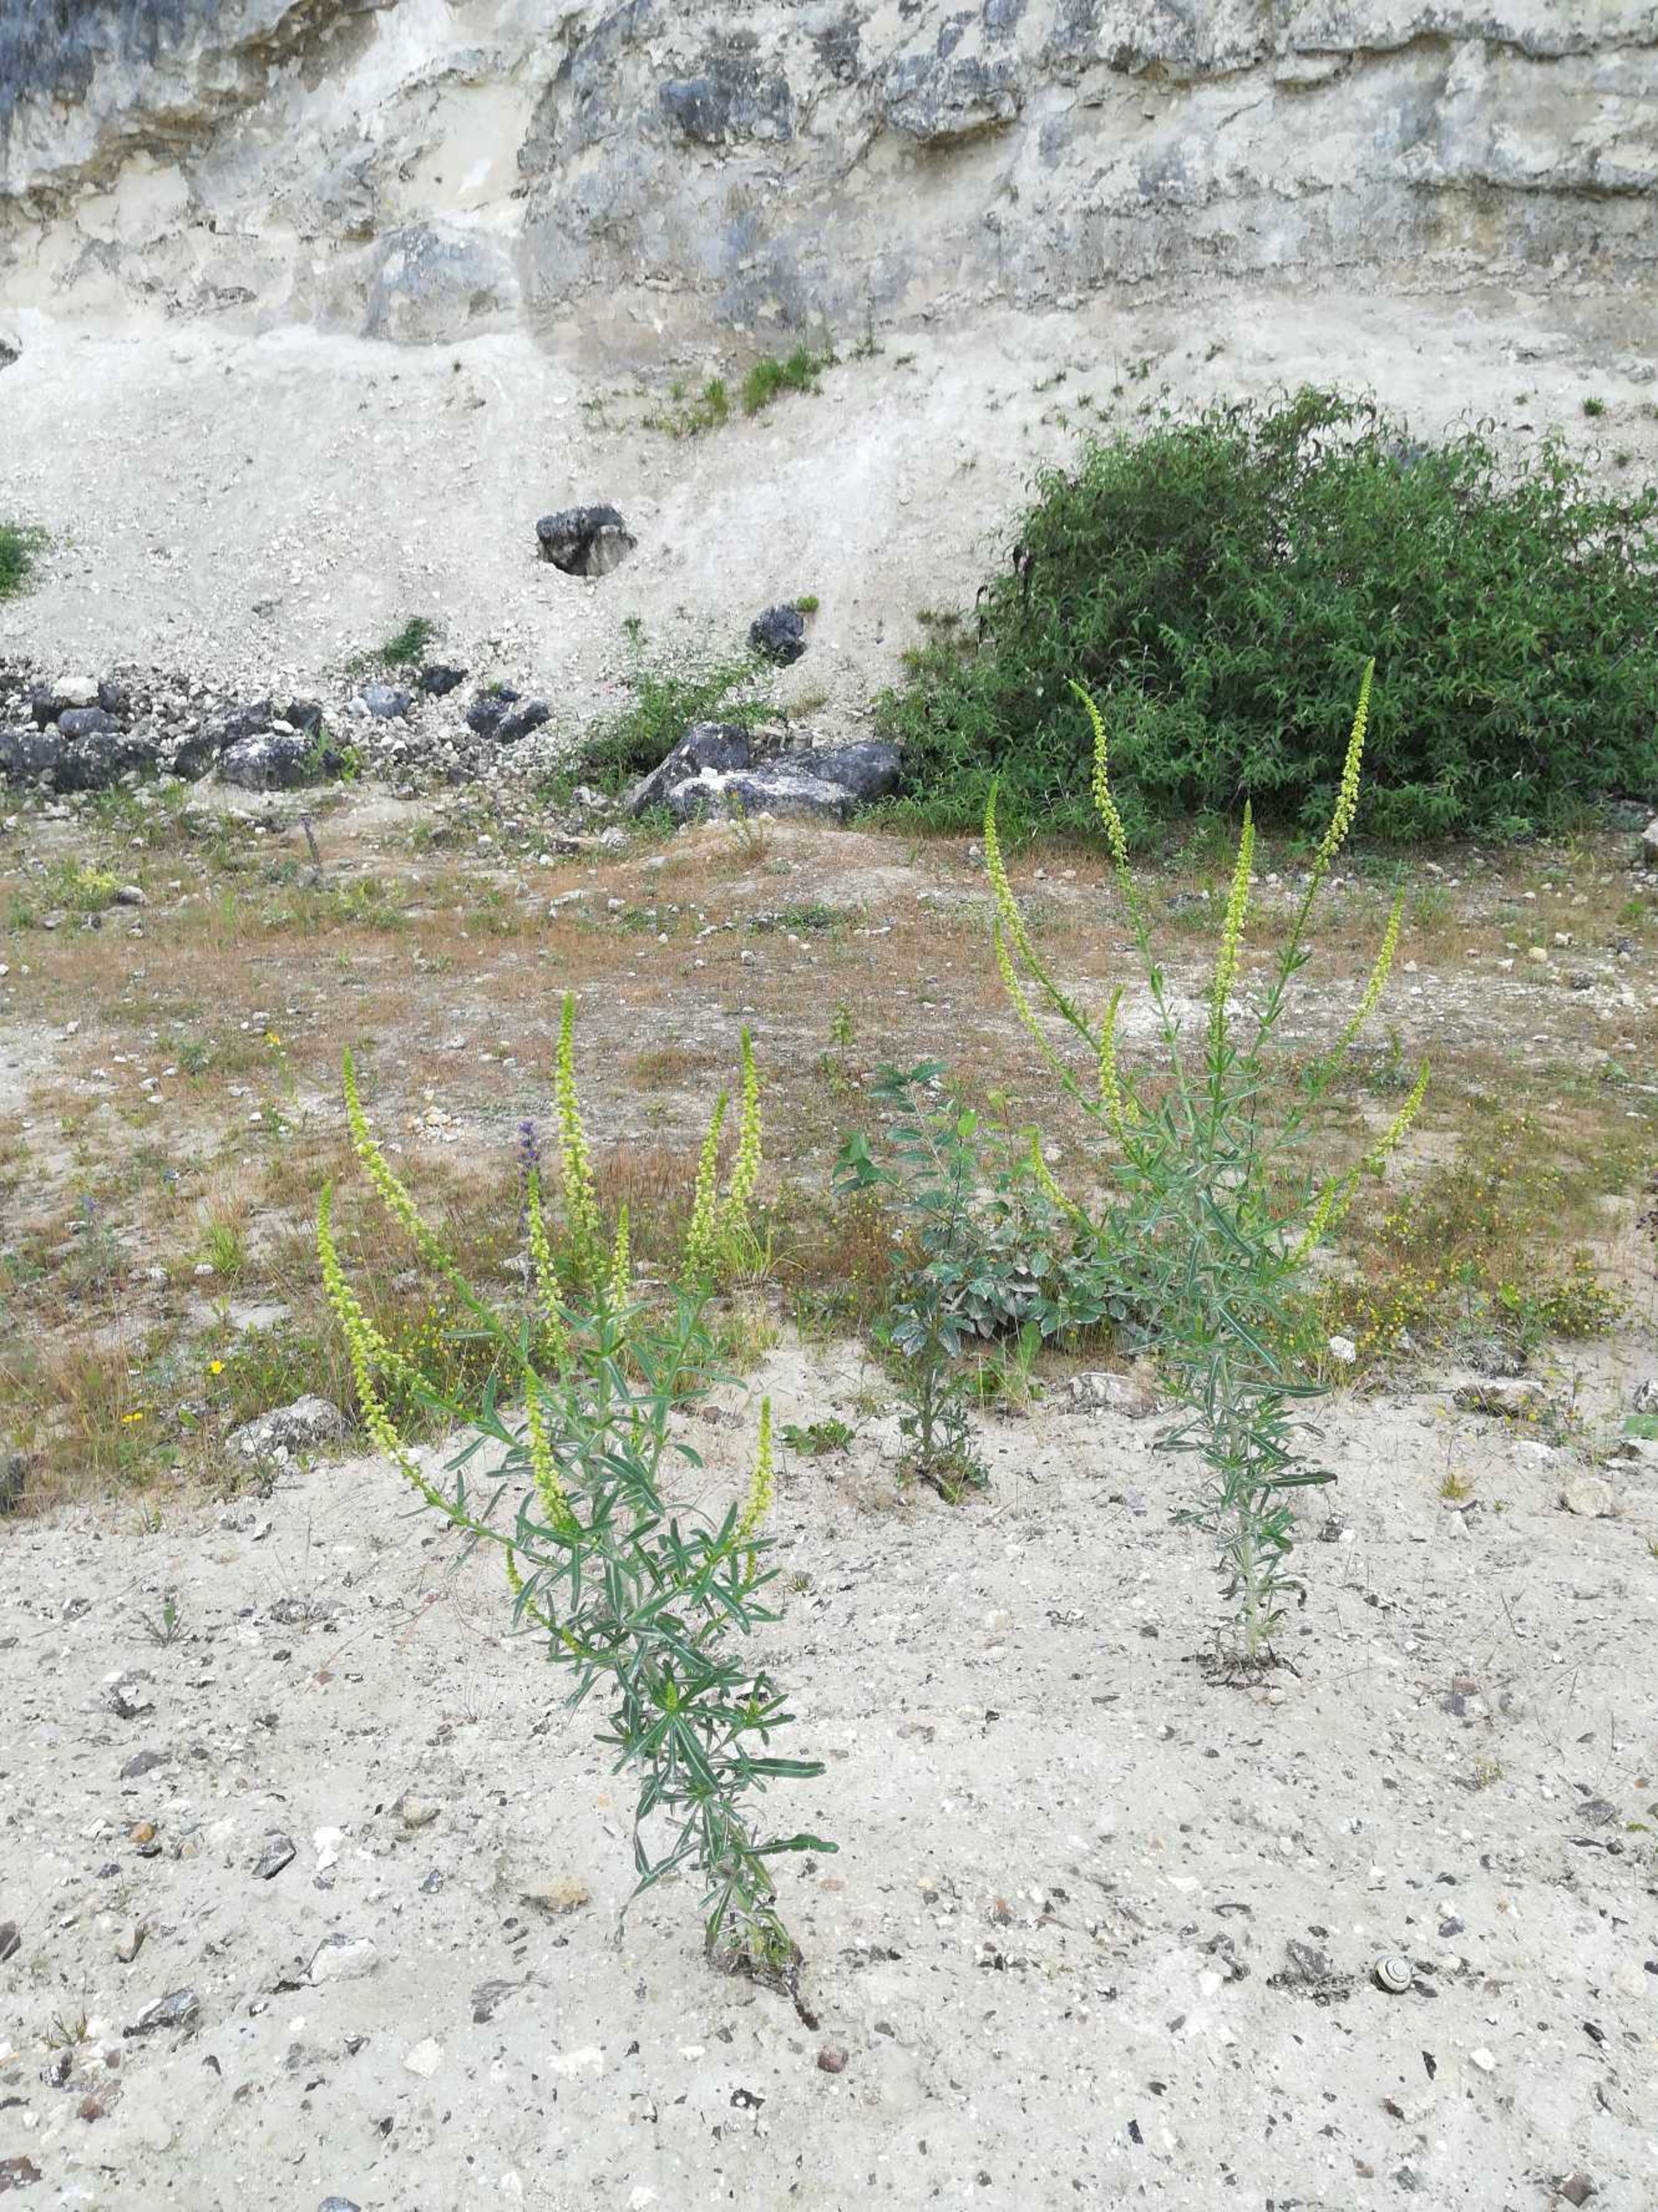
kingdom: Plantae
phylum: Tracheophyta
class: Magnoliopsida
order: Brassicales
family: Resedaceae
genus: Reseda
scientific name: Reseda luteola
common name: Farve-reseda
